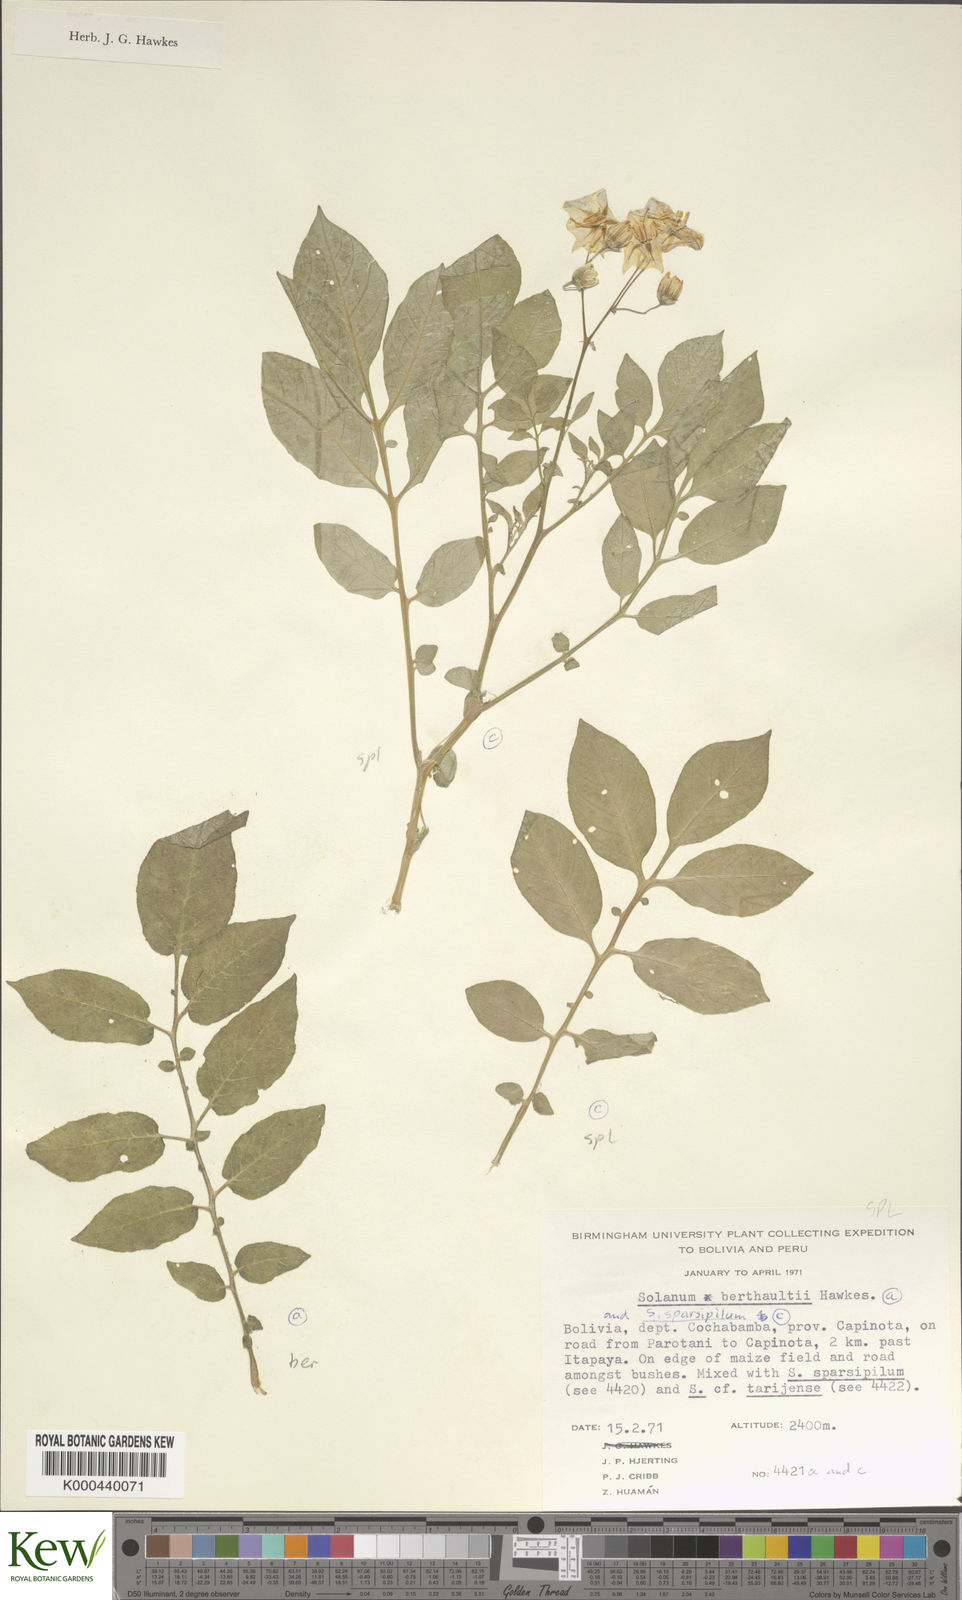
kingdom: Plantae
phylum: Tracheophyta
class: Magnoliopsida
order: Solanales
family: Solanaceae
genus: Solanum
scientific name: Solanum berthaultii
